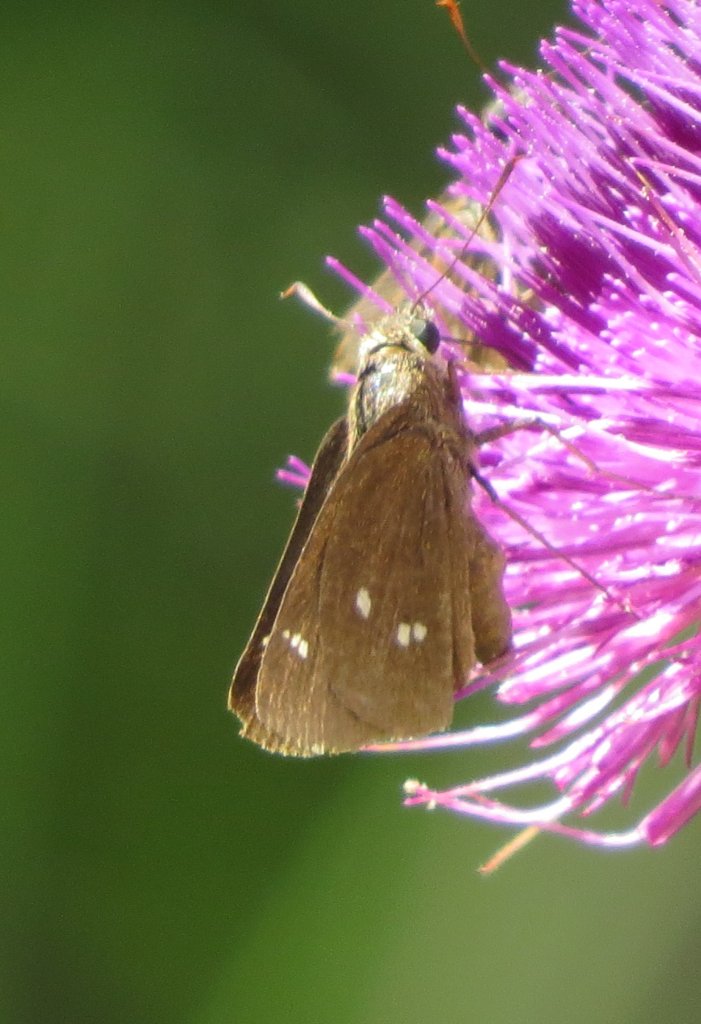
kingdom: Animalia
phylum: Arthropoda
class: Insecta
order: Lepidoptera
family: Hesperiidae
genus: Oligoria
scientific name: Oligoria maculata
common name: Twin-spot Skipper
